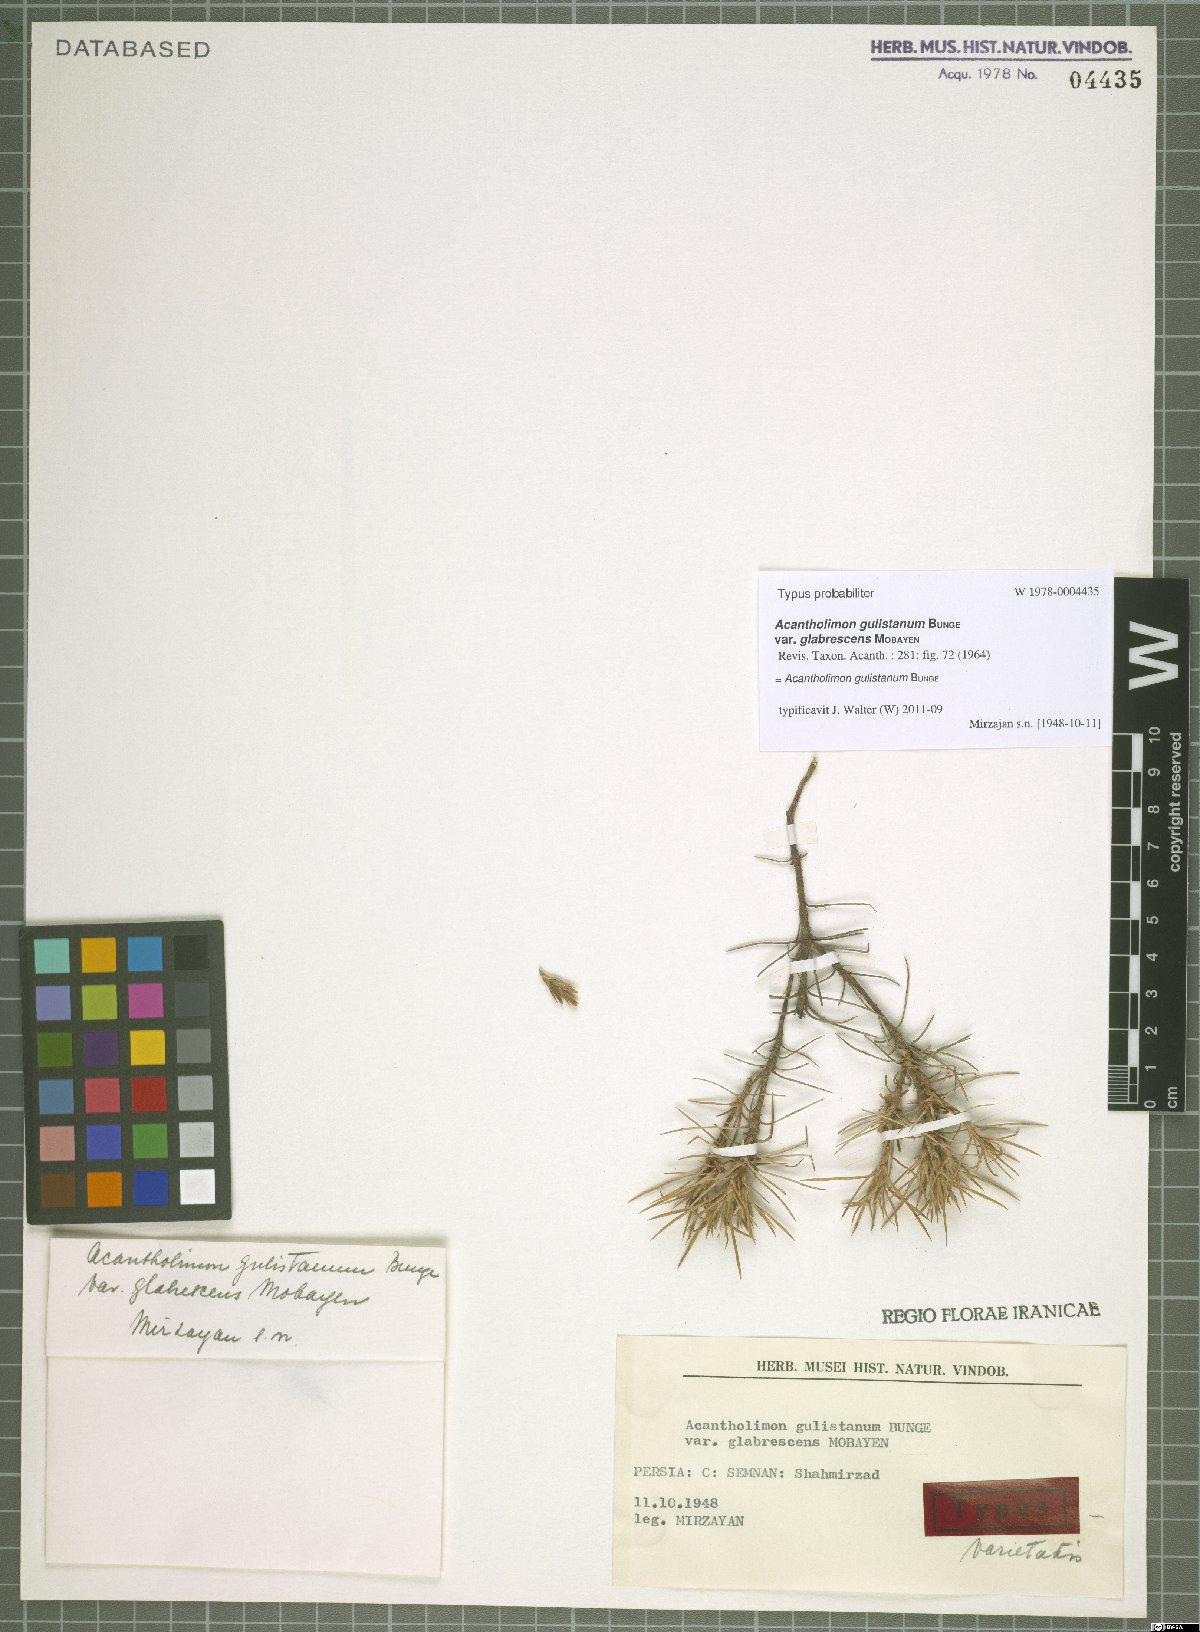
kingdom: Plantae
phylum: Tracheophyta
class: Magnoliopsida
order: Caryophyllales
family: Plumbaginaceae
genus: Acantholimon
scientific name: Acantholimon gulistanum
